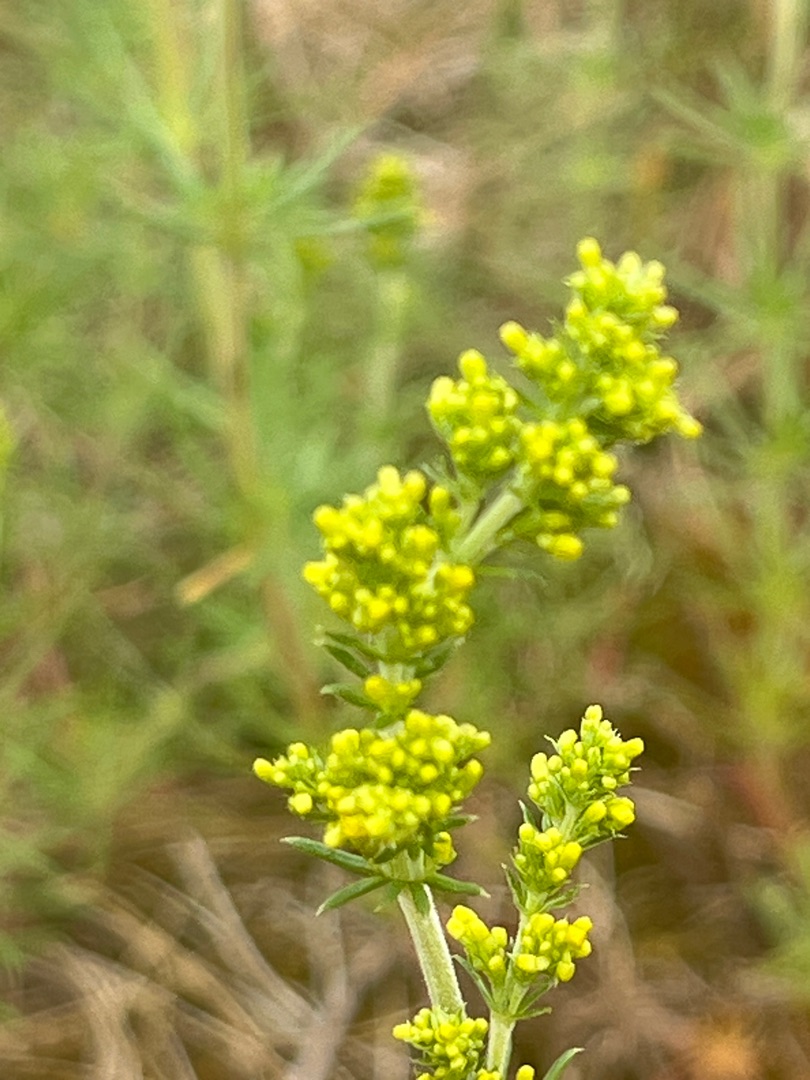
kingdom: Plantae
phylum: Tracheophyta
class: Magnoliopsida
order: Gentianales
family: Rubiaceae
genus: Galium
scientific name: Galium verum
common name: Gul snerre
